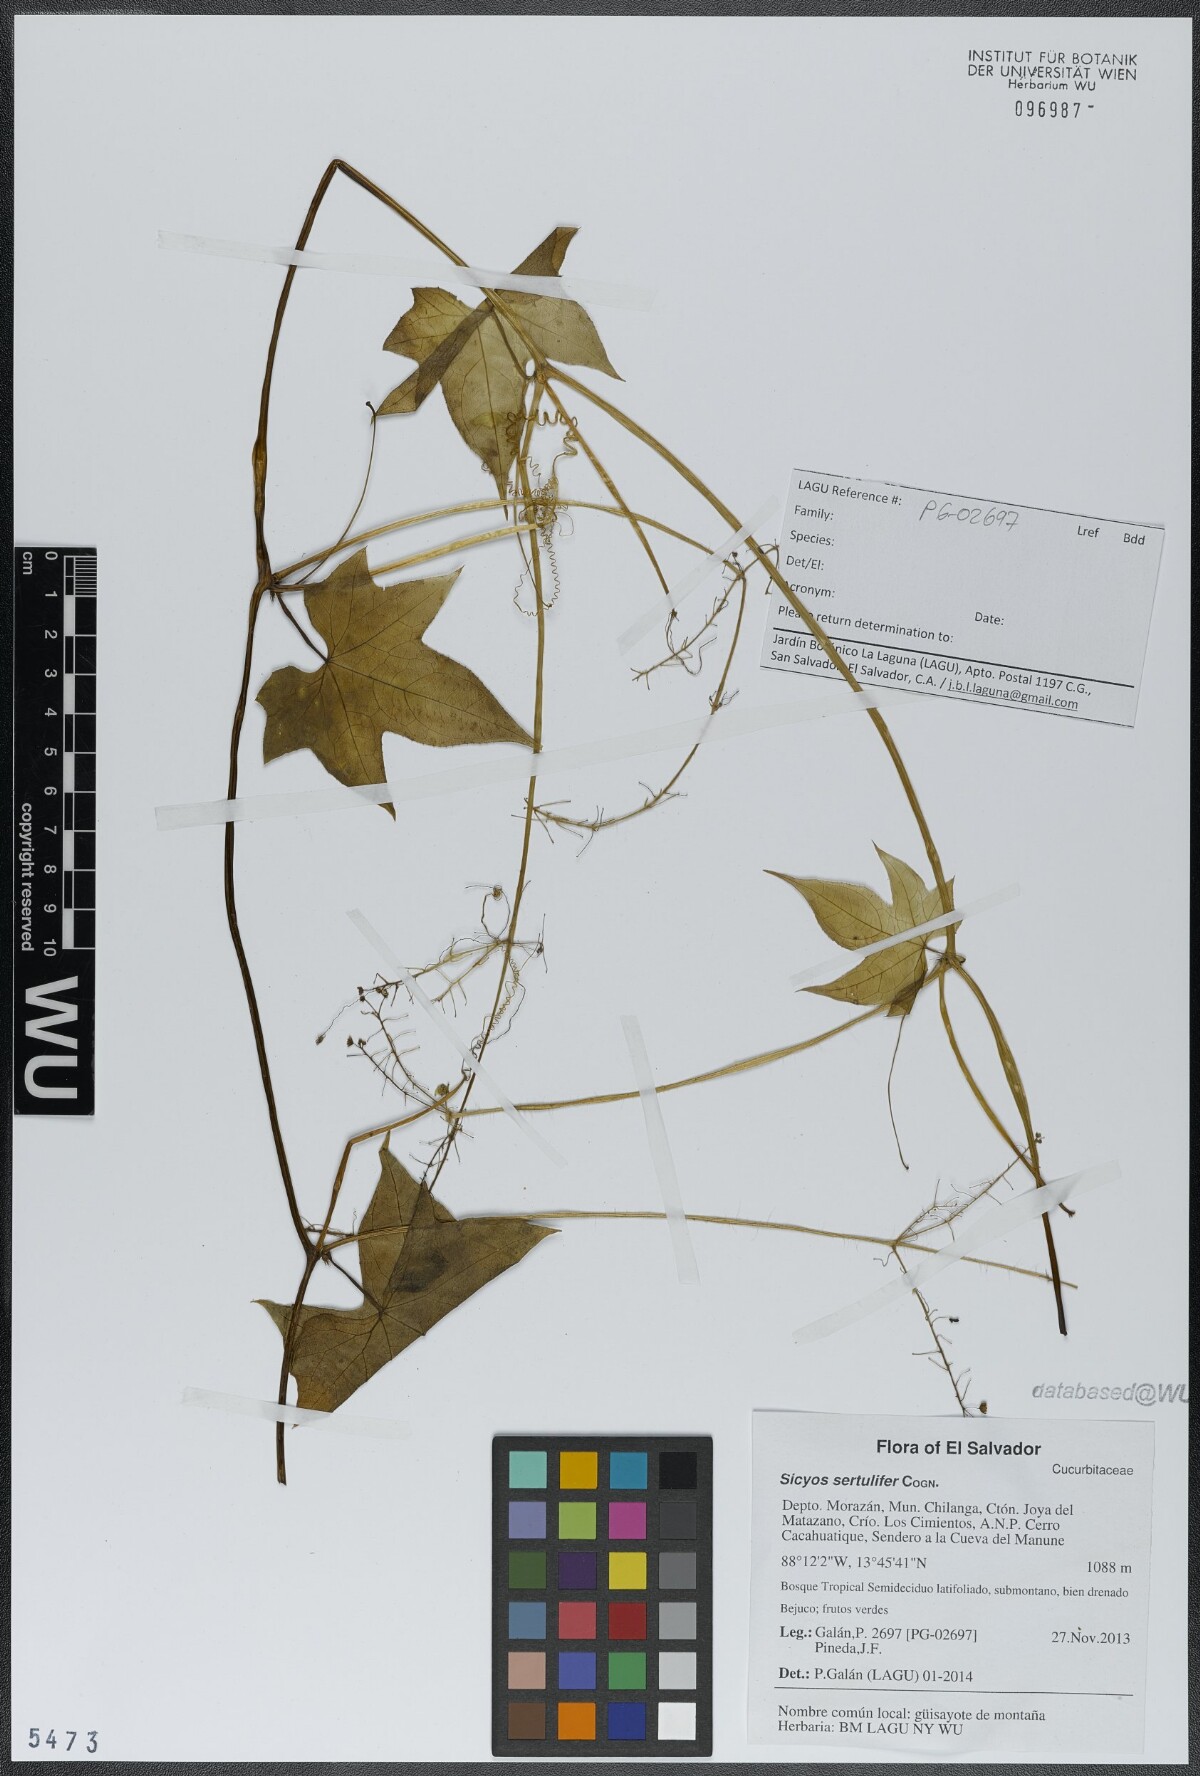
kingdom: Plantae
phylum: Tracheophyta
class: Magnoliopsida
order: Cucurbitales
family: Cucurbitaceae
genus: Sicyos
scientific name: Sicyos sertulifer
